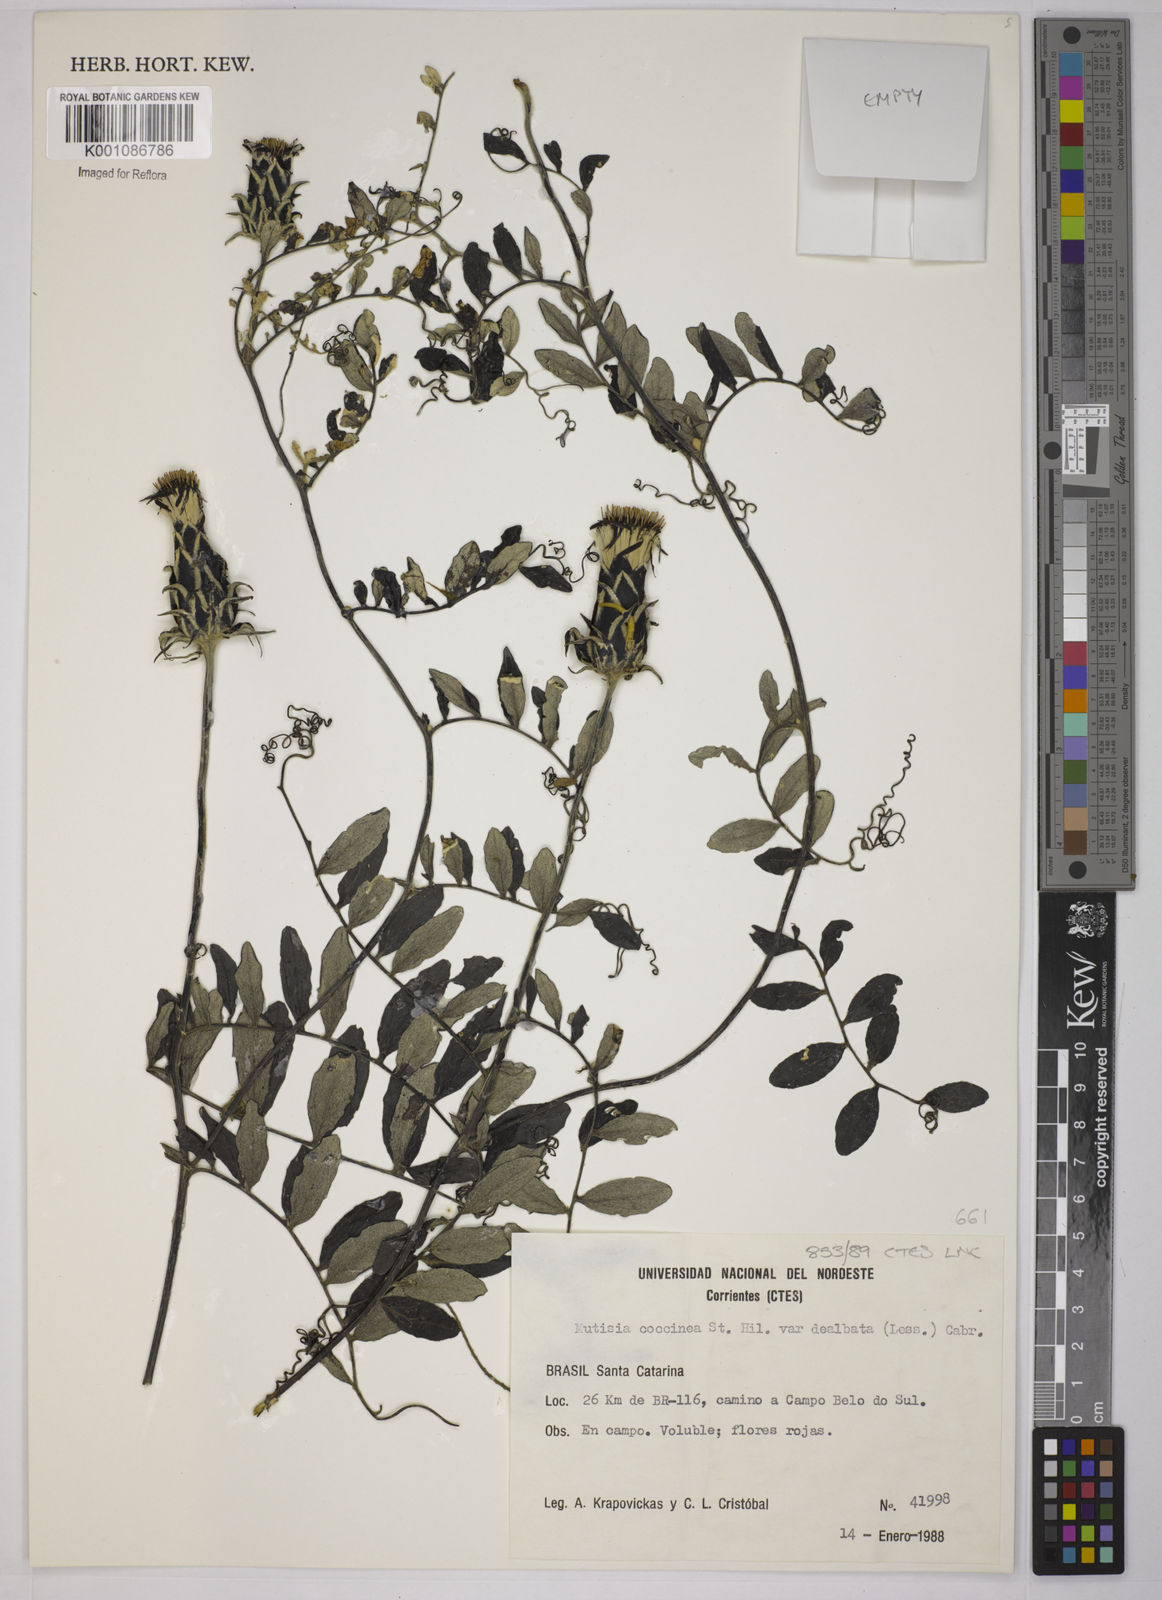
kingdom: Plantae
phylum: Tracheophyta
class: Magnoliopsida
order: Asterales
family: Asteraceae
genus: Mutisia
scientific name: Mutisia coccinea
